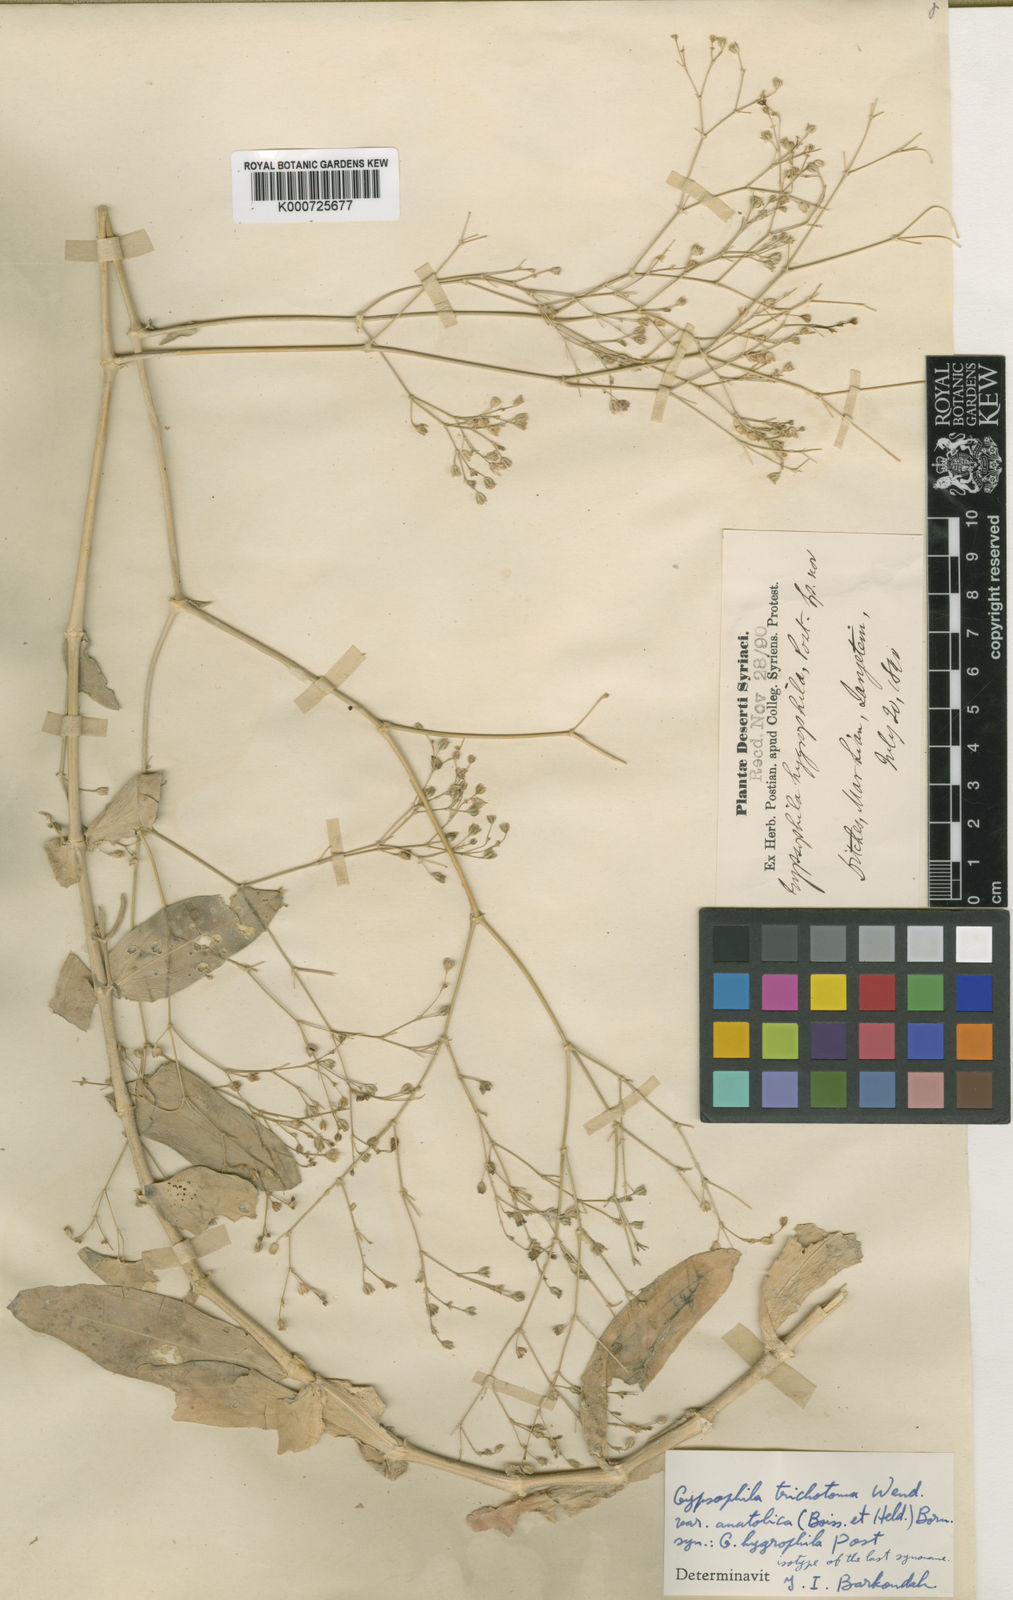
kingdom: Plantae
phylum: Tracheophyta
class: Magnoliopsida
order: Caryophyllales
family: Caryophyllaceae
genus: Gypsophila
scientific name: Gypsophila perfoliata
